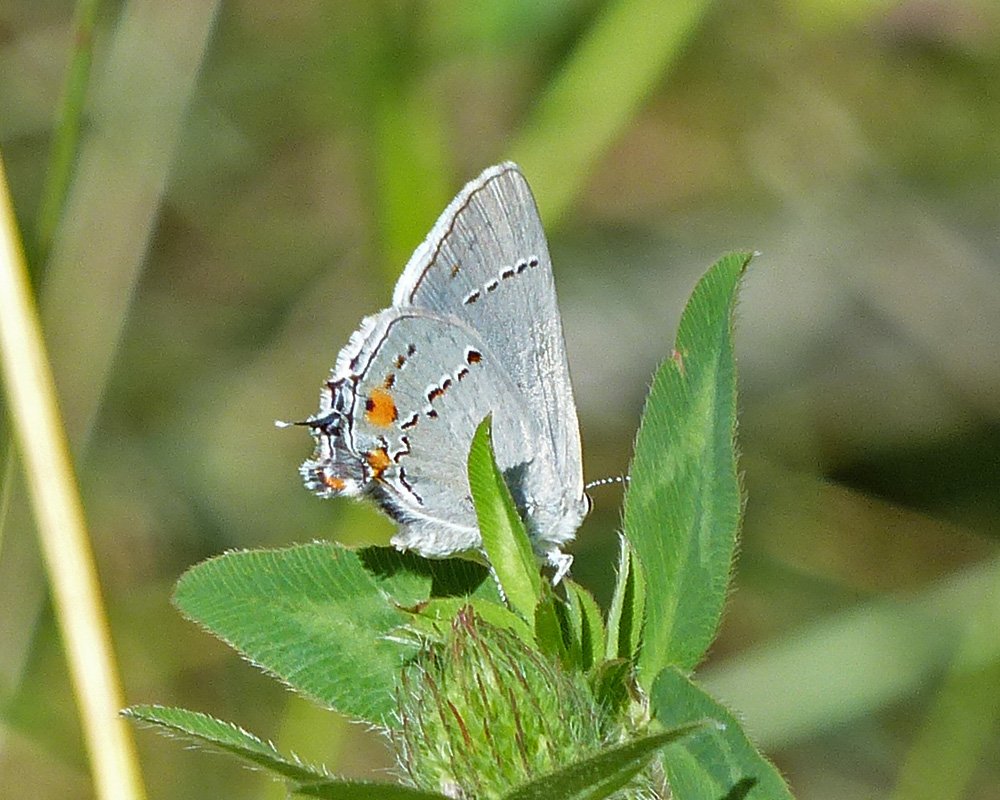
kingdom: Animalia
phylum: Arthropoda
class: Insecta
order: Lepidoptera
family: Lycaenidae
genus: Strymon
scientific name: Strymon melinus
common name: Gray Hairstreak
